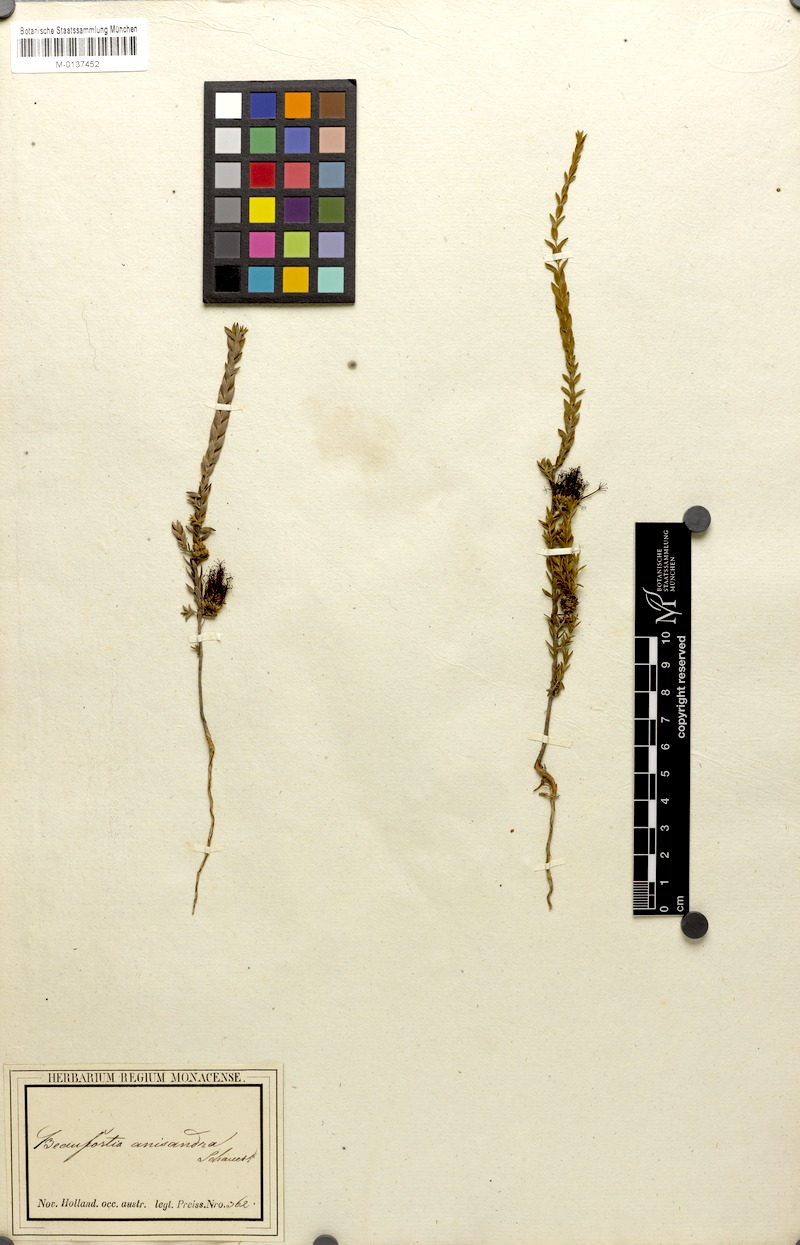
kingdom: Plantae
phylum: Tracheophyta
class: Magnoliopsida
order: Myrtales
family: Myrtaceae
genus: Melaleuca
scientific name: Melaleuca anisandra
